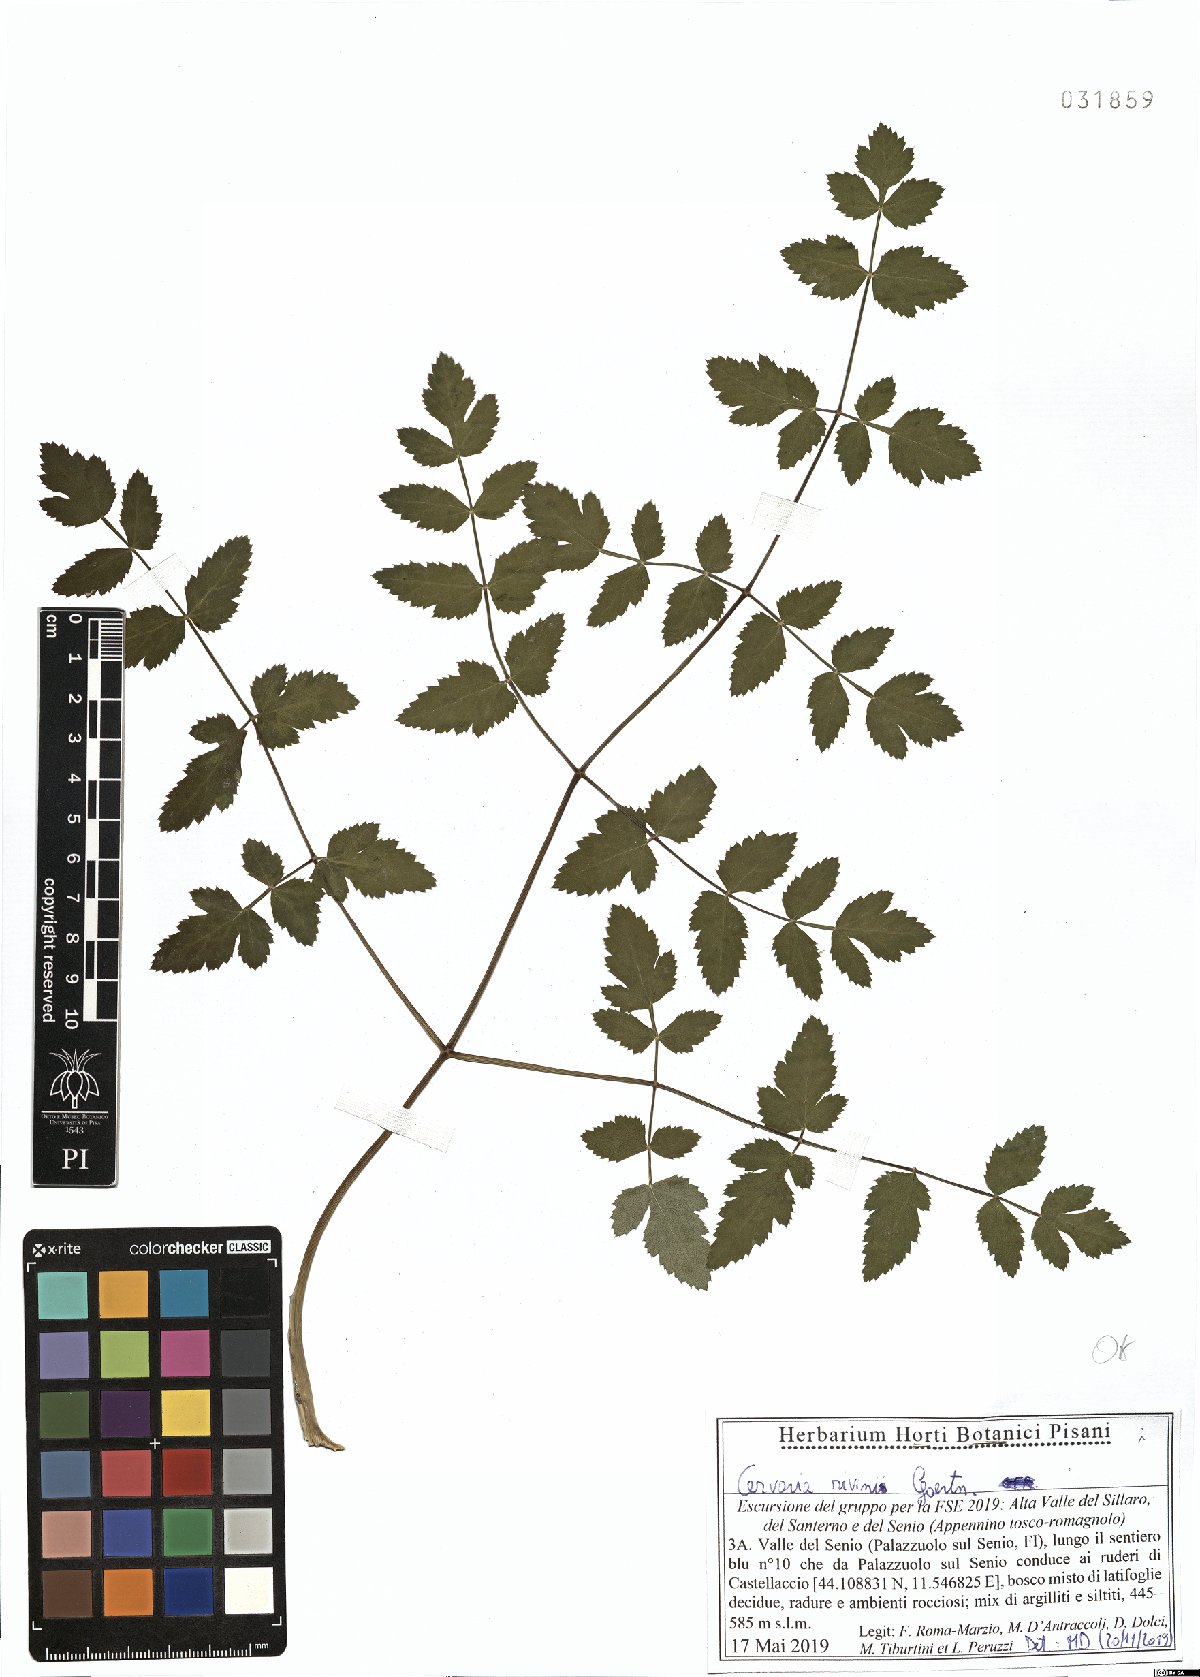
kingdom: Plantae
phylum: Tracheophyta
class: Magnoliopsida
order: Apiales
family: Apiaceae
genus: Cervaria
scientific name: Cervaria rivini
